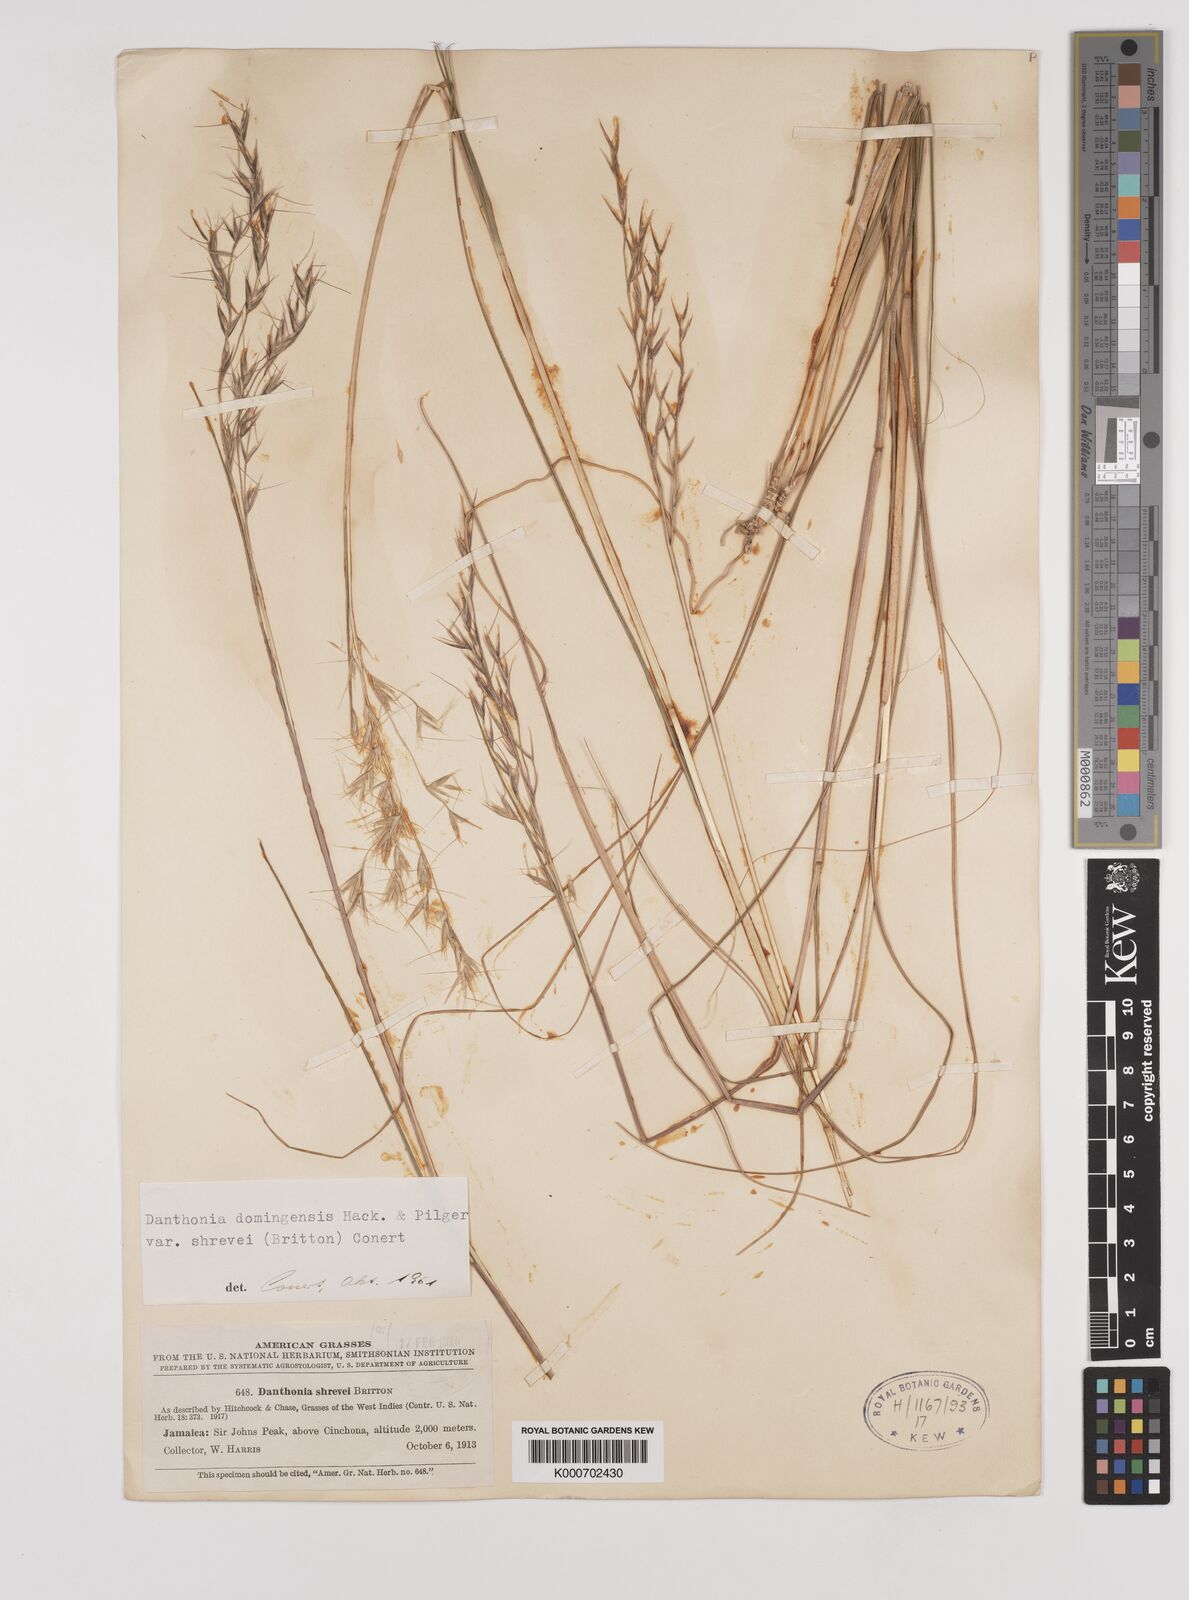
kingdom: Plantae
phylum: Tracheophyta
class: Liliopsida
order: Poales
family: Poaceae
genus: Danthonia
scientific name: Danthonia domingensis
